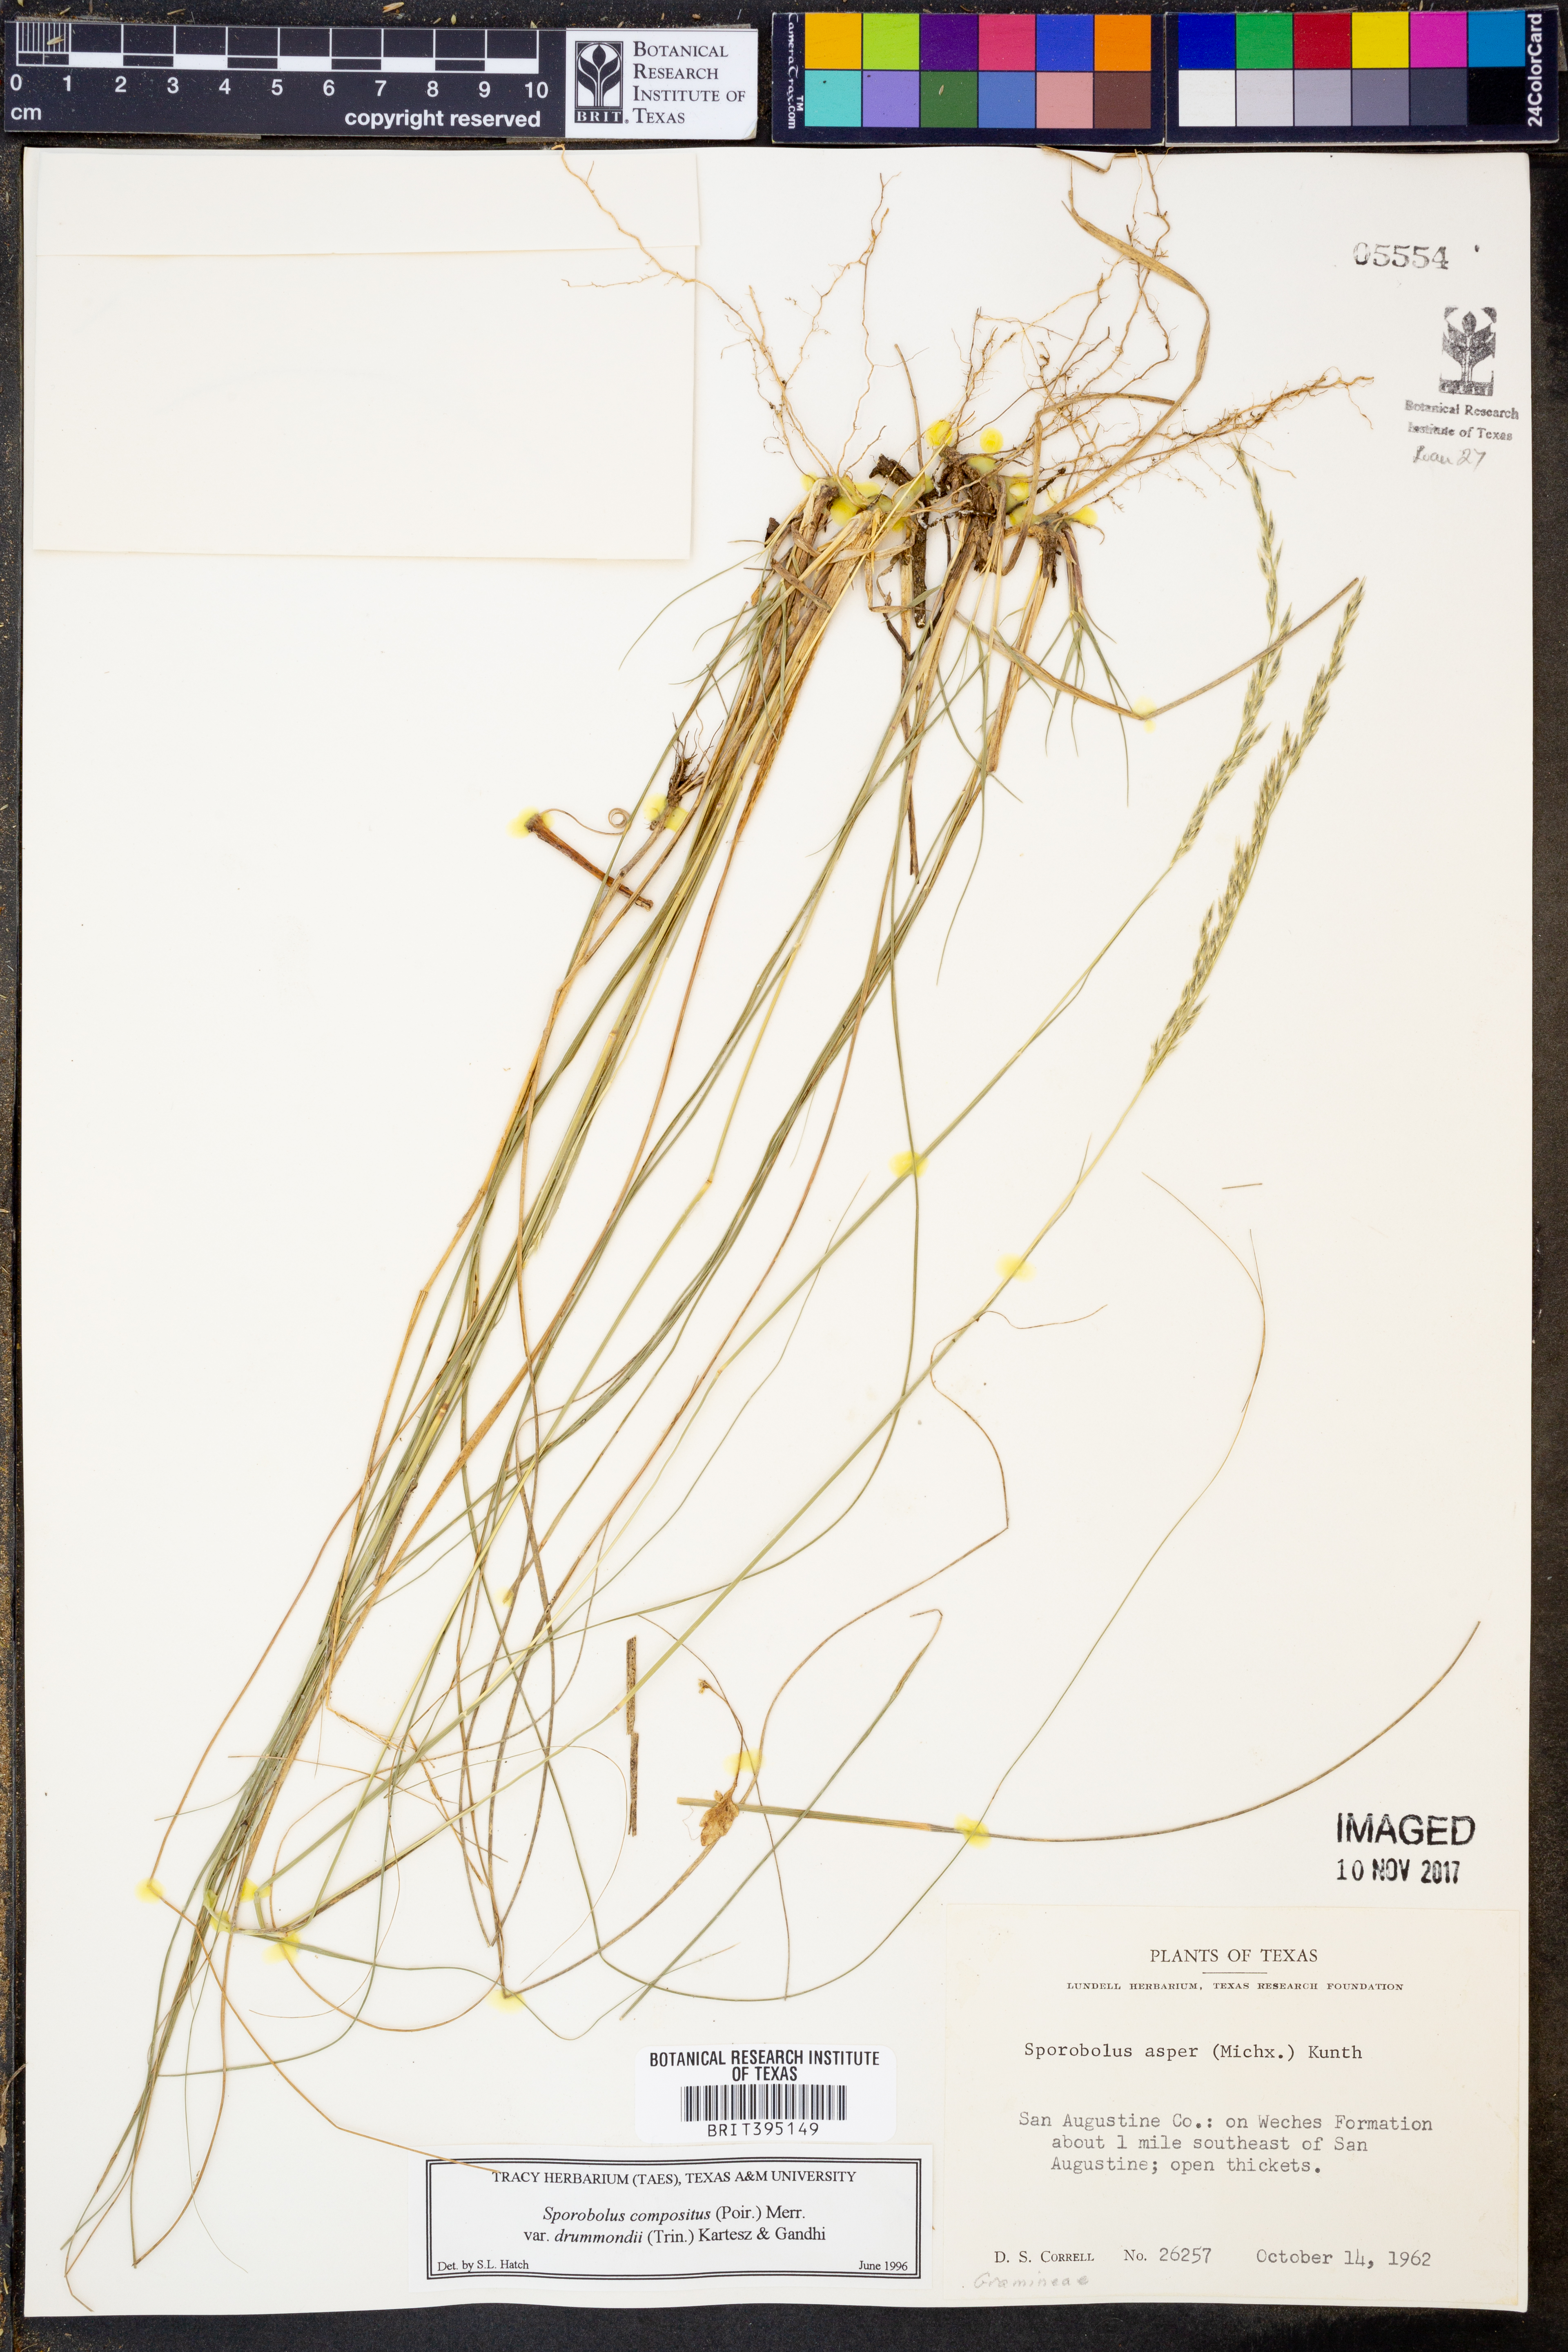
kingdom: Plantae
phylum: Tracheophyta
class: Liliopsida
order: Poales
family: Poaceae
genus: Sporobolus
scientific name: Sporobolus compositus
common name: Rough dropseed
